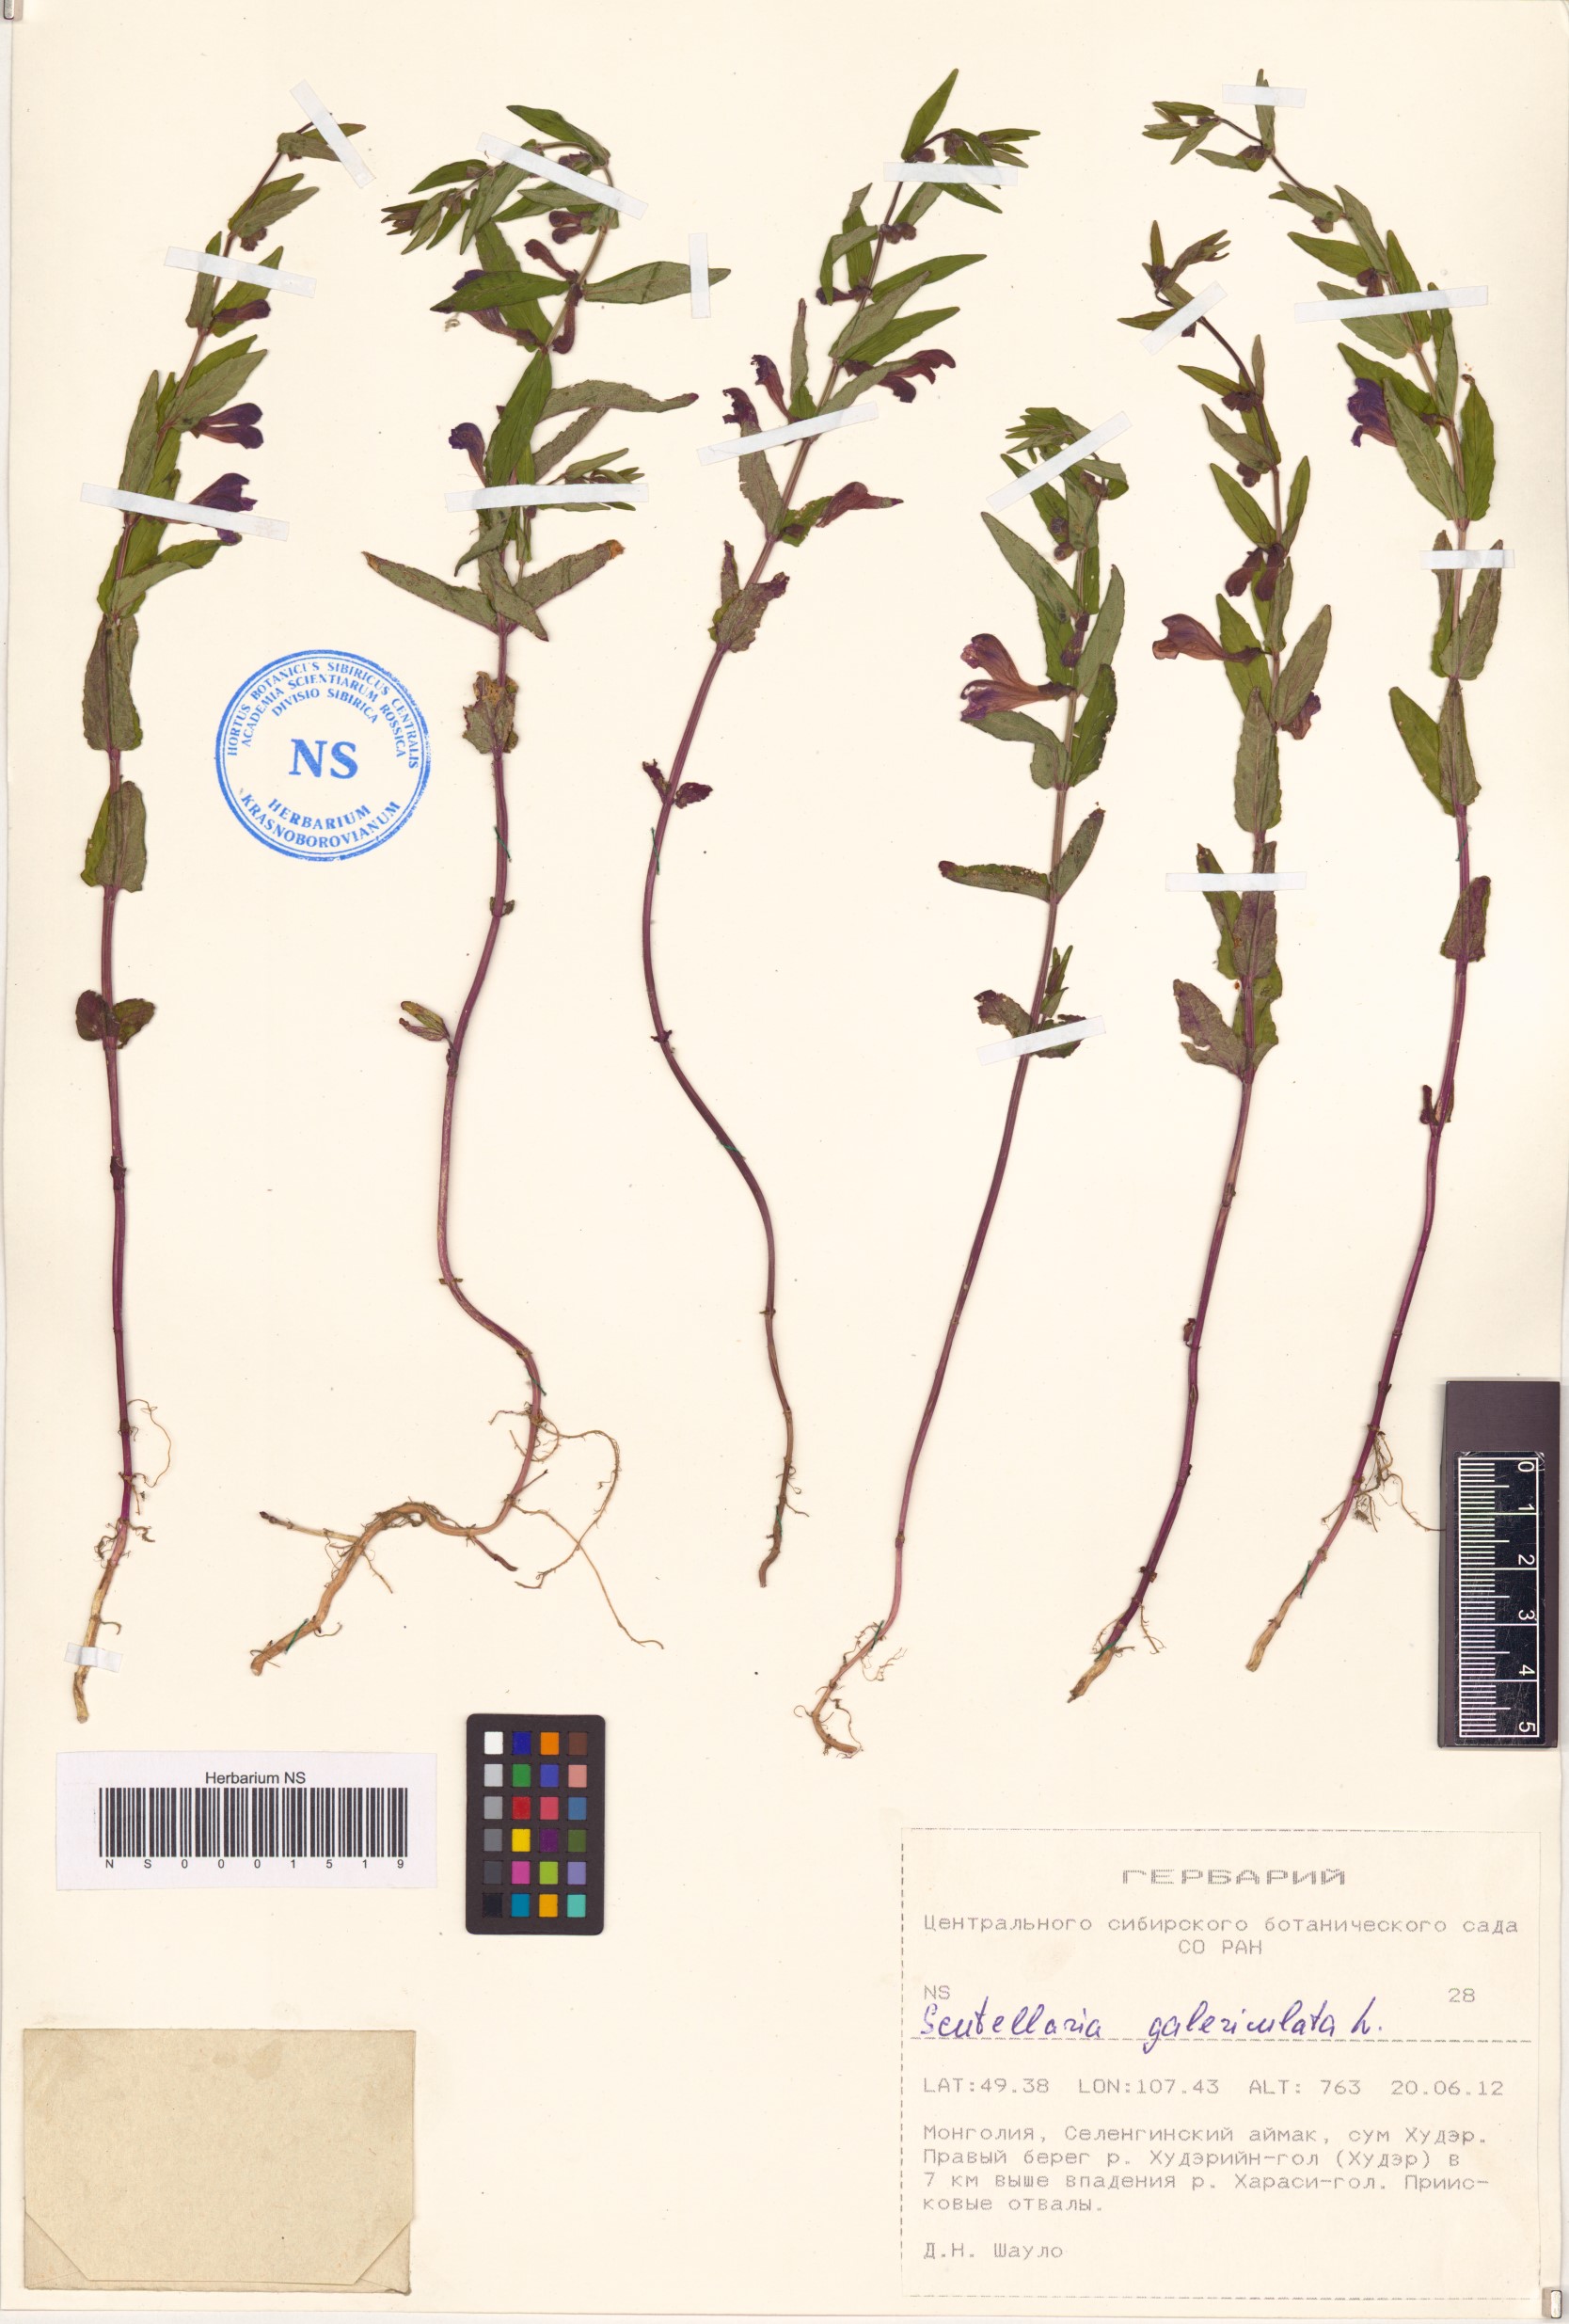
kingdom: Plantae
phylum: Tracheophyta
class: Magnoliopsida
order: Lamiales
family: Lamiaceae
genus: Scutellaria
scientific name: Scutellaria galericulata
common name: Skullcap
